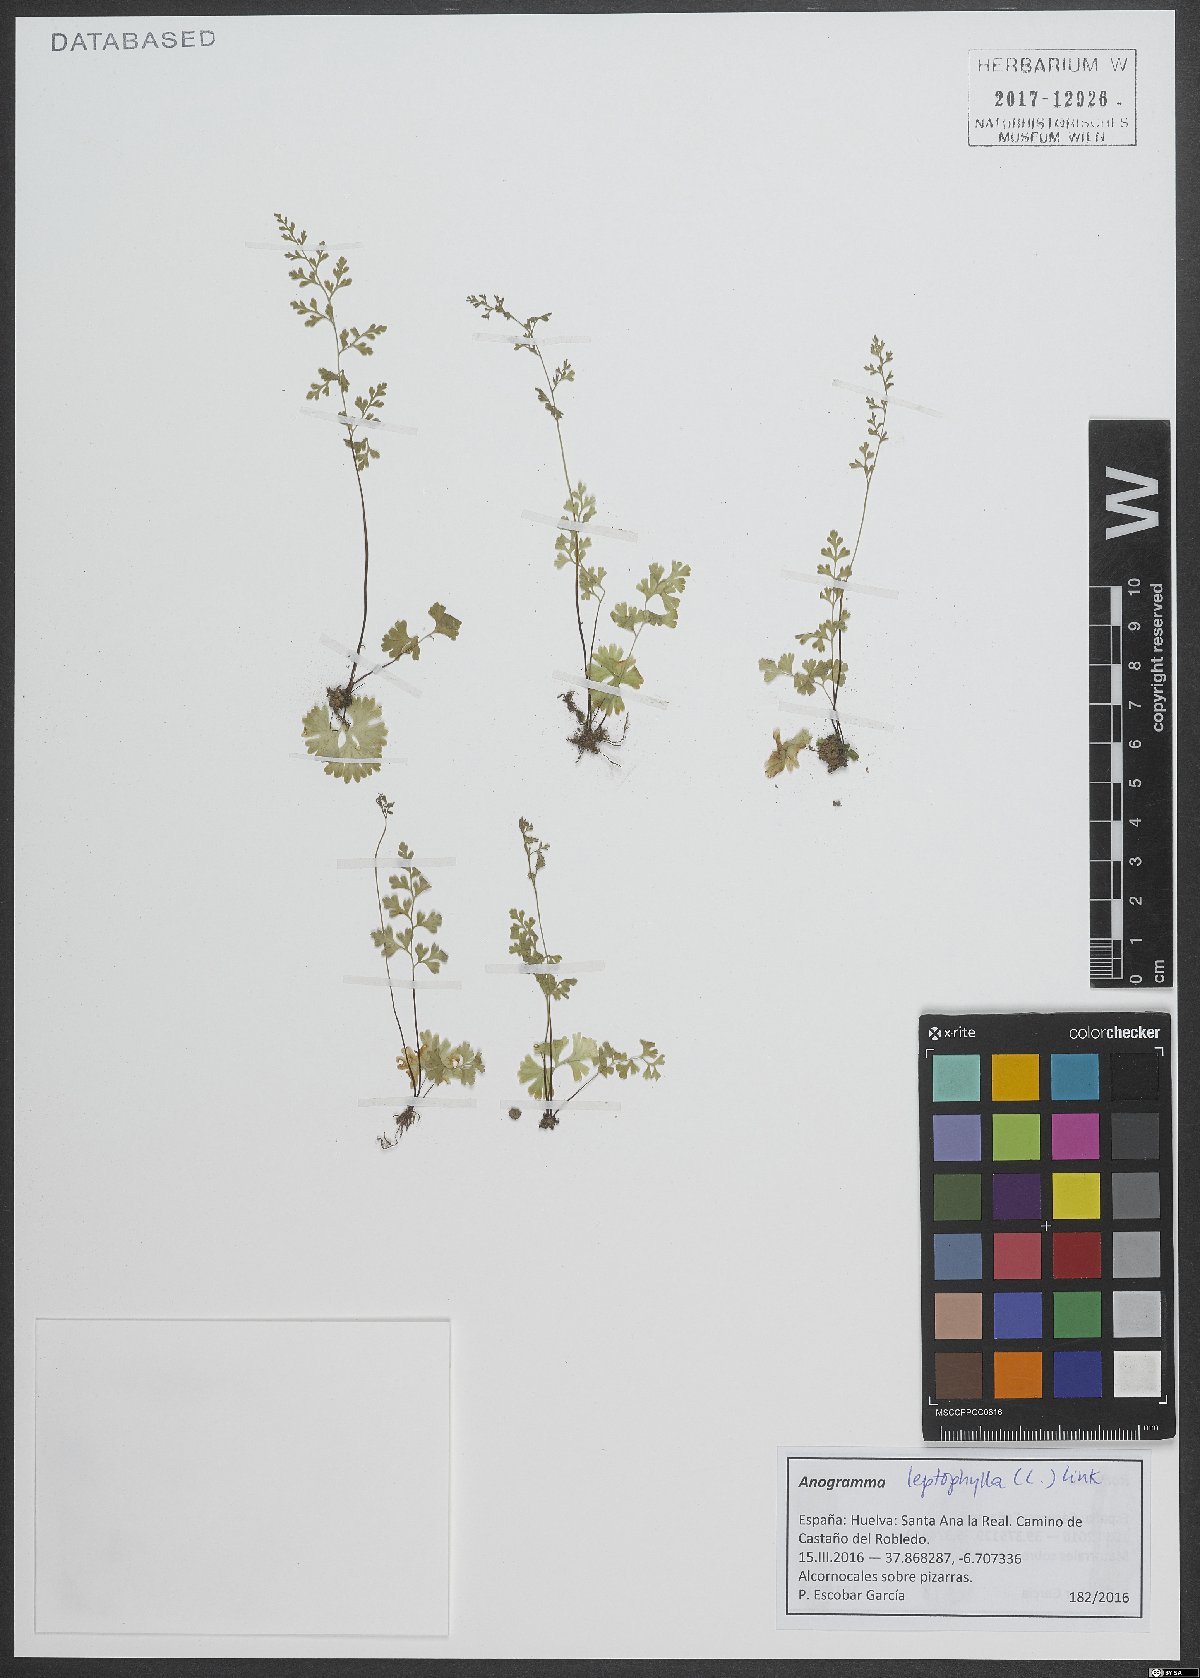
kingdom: Plantae
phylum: Tracheophyta
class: Polypodiopsida
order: Polypodiales
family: Pteridaceae
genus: Anogramma
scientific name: Anogramma leptophylla
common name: Jersey fern
